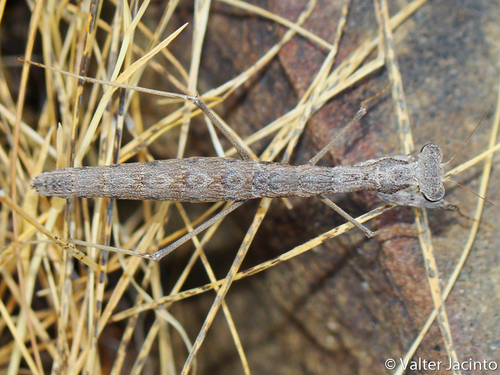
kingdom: Animalia
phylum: Arthropoda
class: Insecta
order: Mantodea
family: Rivetinidae
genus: Geomantis
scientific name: Geomantis larvoides
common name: Wingless ground mantis
